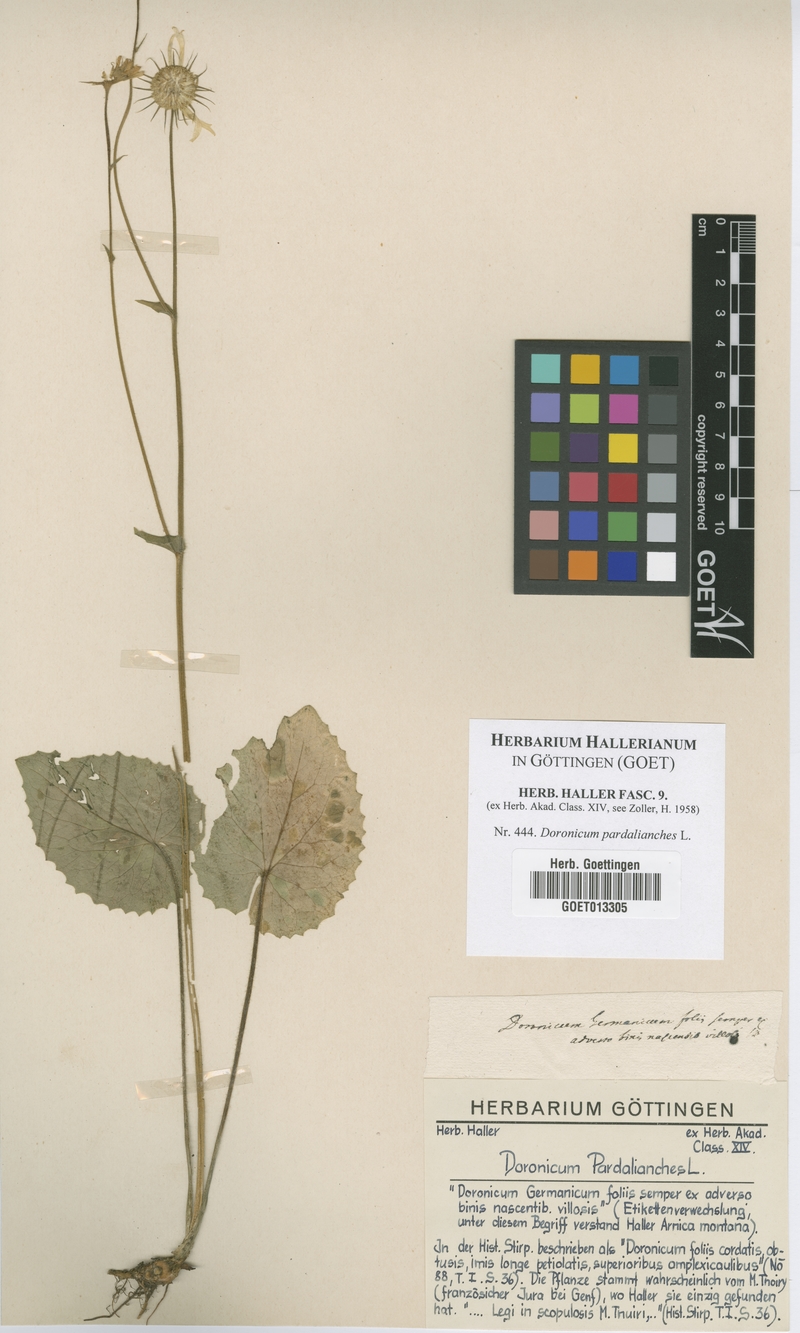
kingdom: Plantae
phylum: Tracheophyta
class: Magnoliopsida
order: Asterales
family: Asteraceae
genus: Doronicum
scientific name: Doronicum pardalianches
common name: Leopard's-bane
